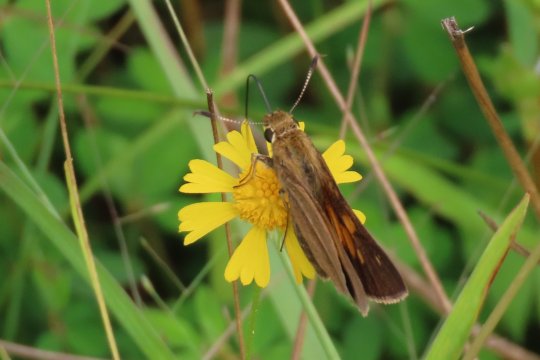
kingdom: Animalia
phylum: Arthropoda
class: Insecta
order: Lepidoptera
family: Hesperiidae
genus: Poanes
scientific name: Poanes aaroni
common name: Aaron's Skipper
